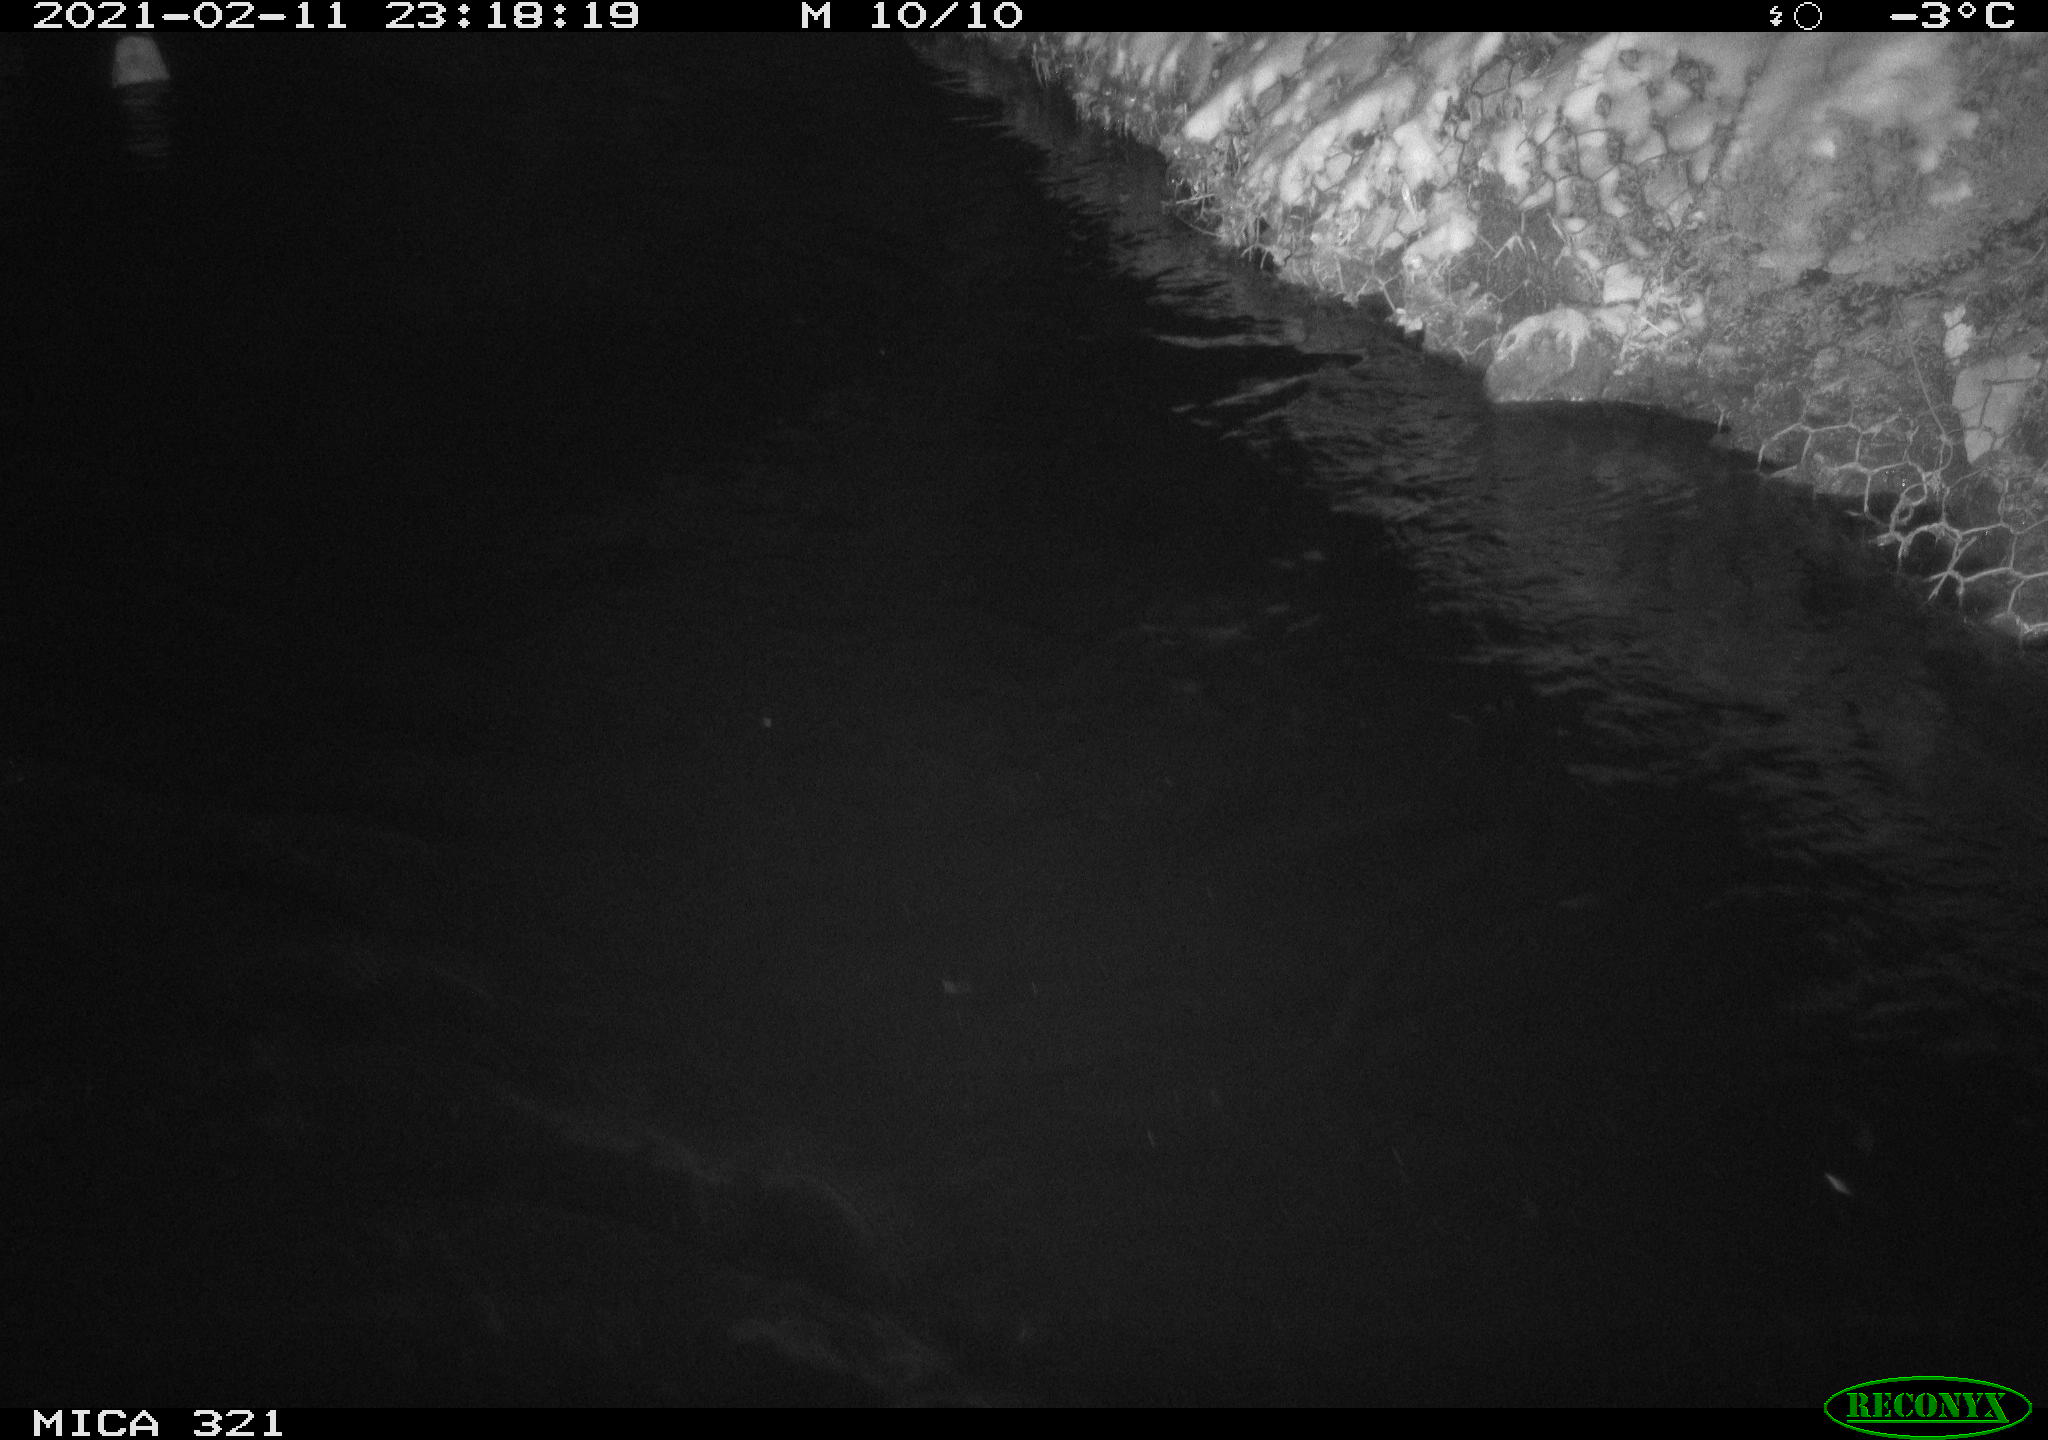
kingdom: Animalia
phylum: Chordata
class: Aves
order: Anseriformes
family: Anatidae
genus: Anas
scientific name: Anas platyrhynchos
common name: Mallard
